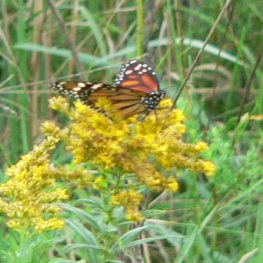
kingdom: Animalia
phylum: Arthropoda
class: Insecta
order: Lepidoptera
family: Nymphalidae
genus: Danaus
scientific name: Danaus plexippus
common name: Monarch
